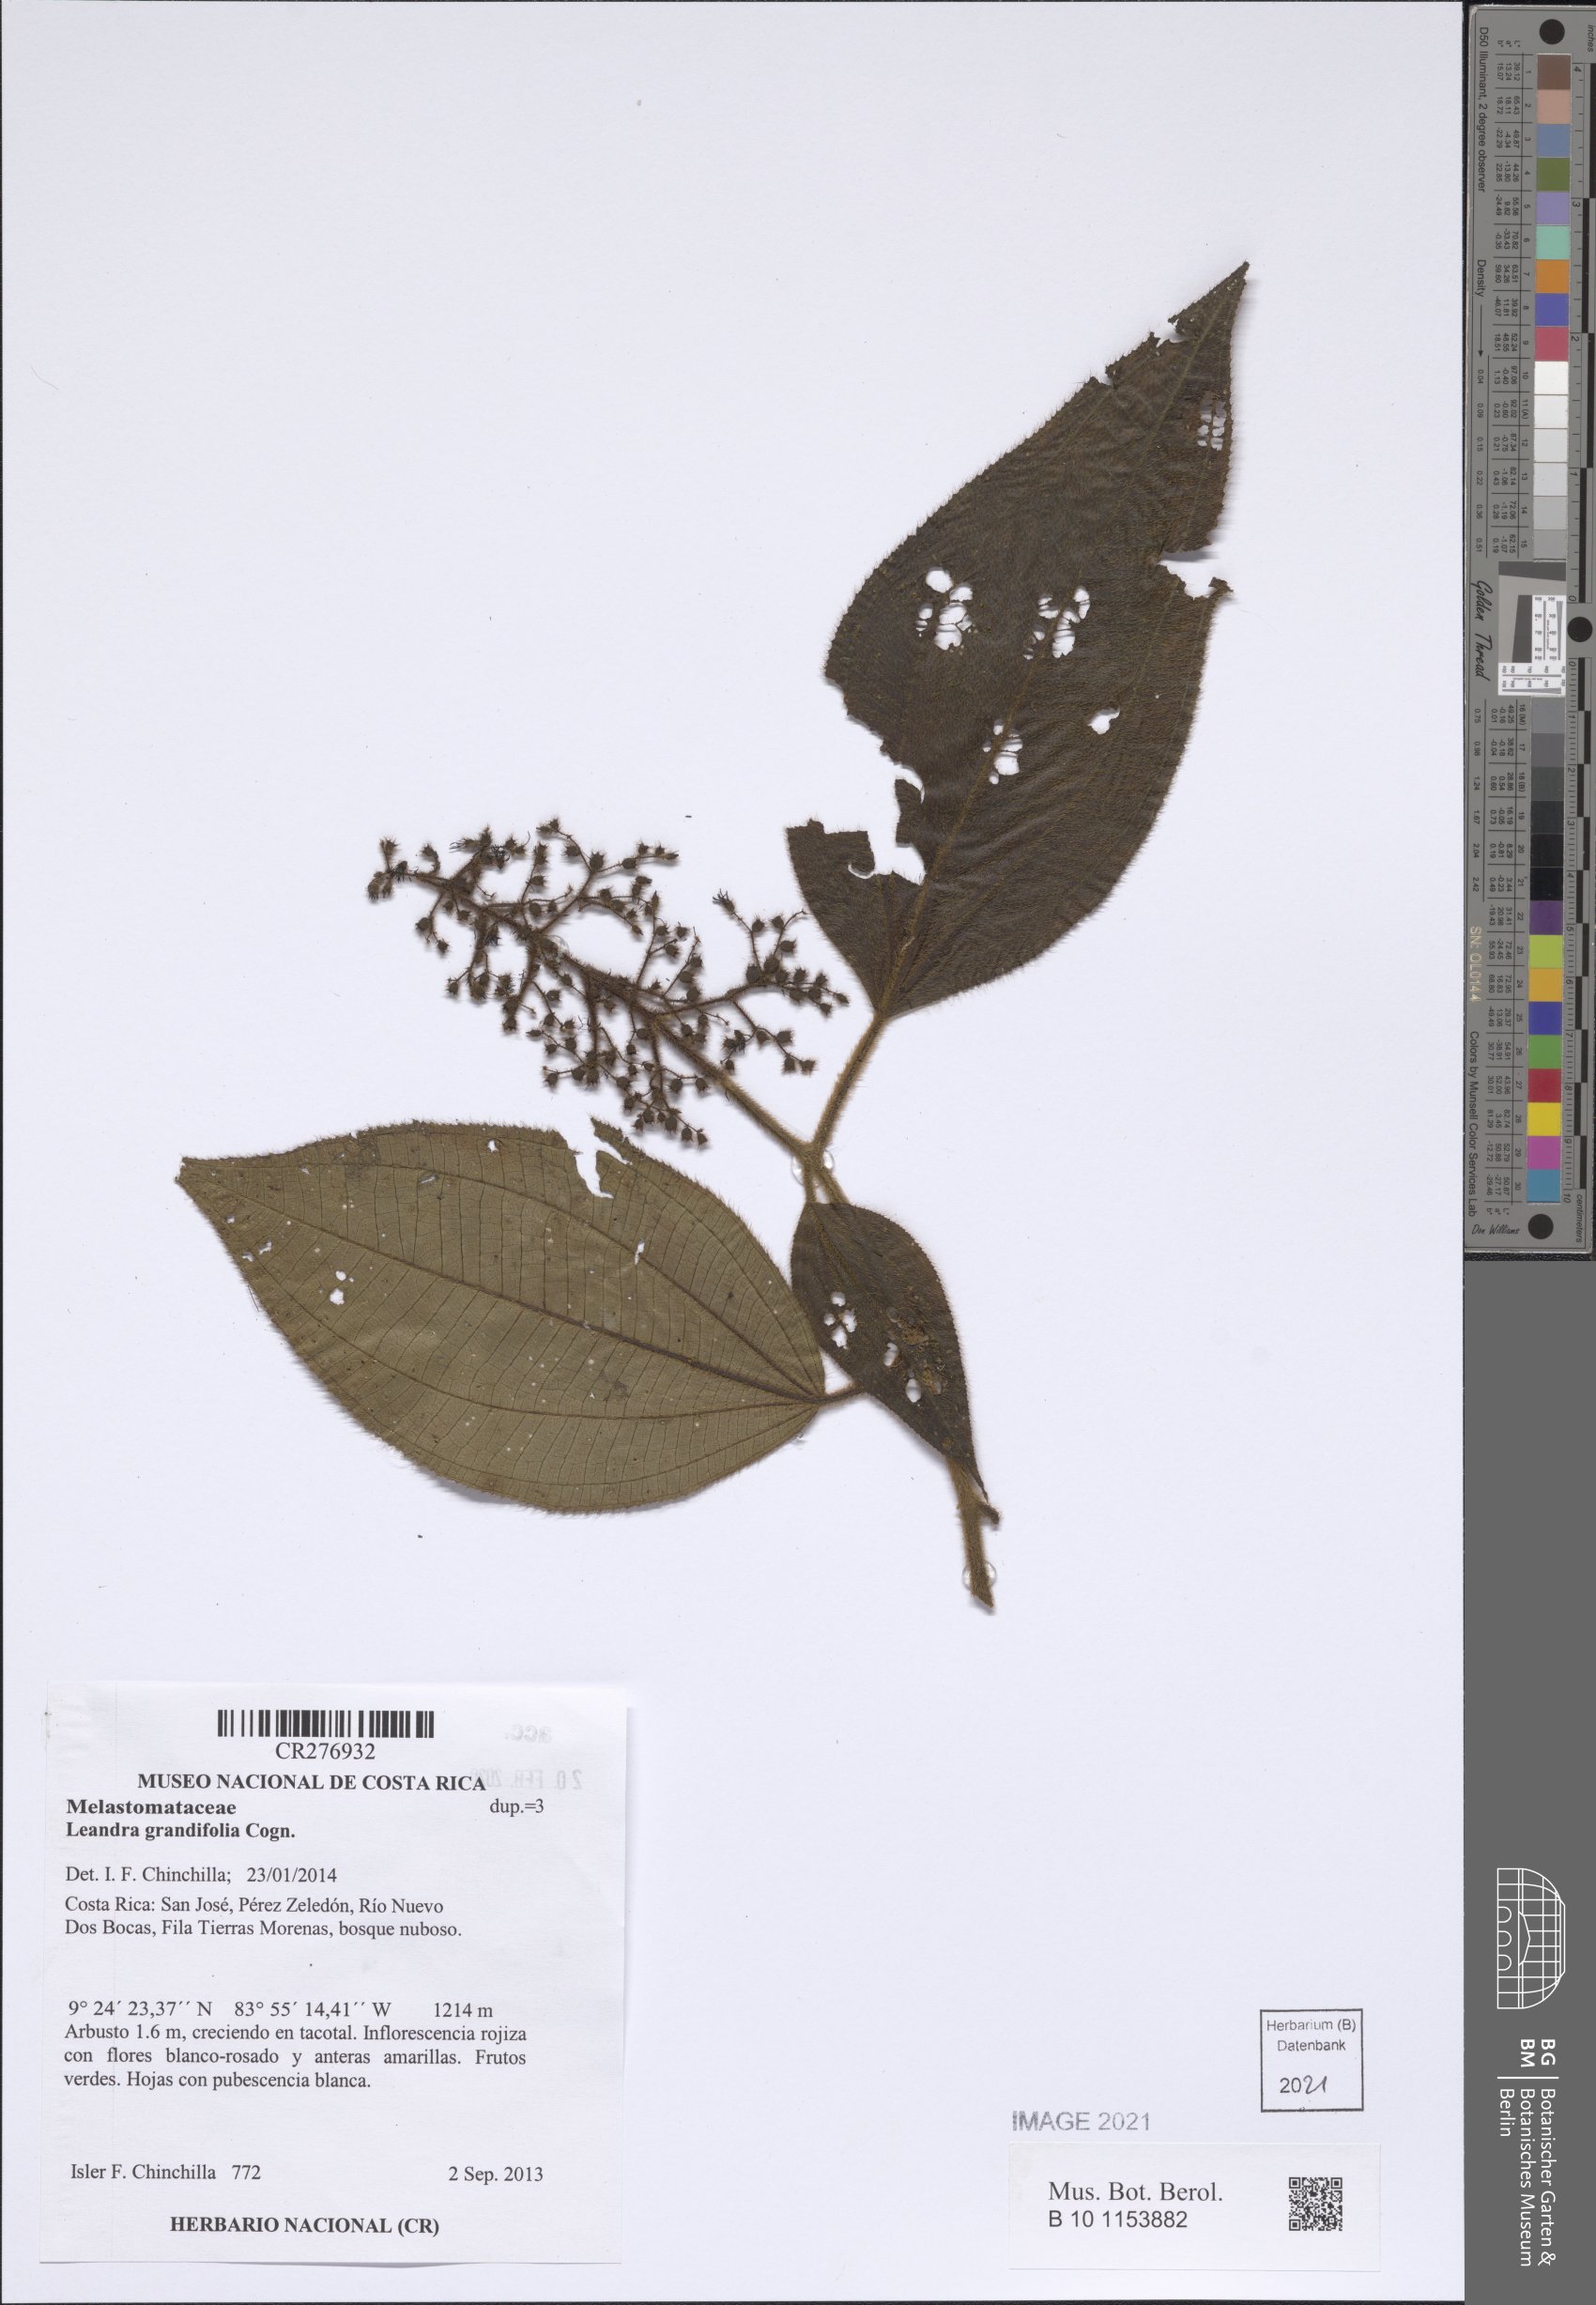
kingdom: Plantae
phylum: Tracheophyta
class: Magnoliopsida
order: Myrtales
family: Melastomataceae
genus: Miconia
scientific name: Miconia secungrandifolia
